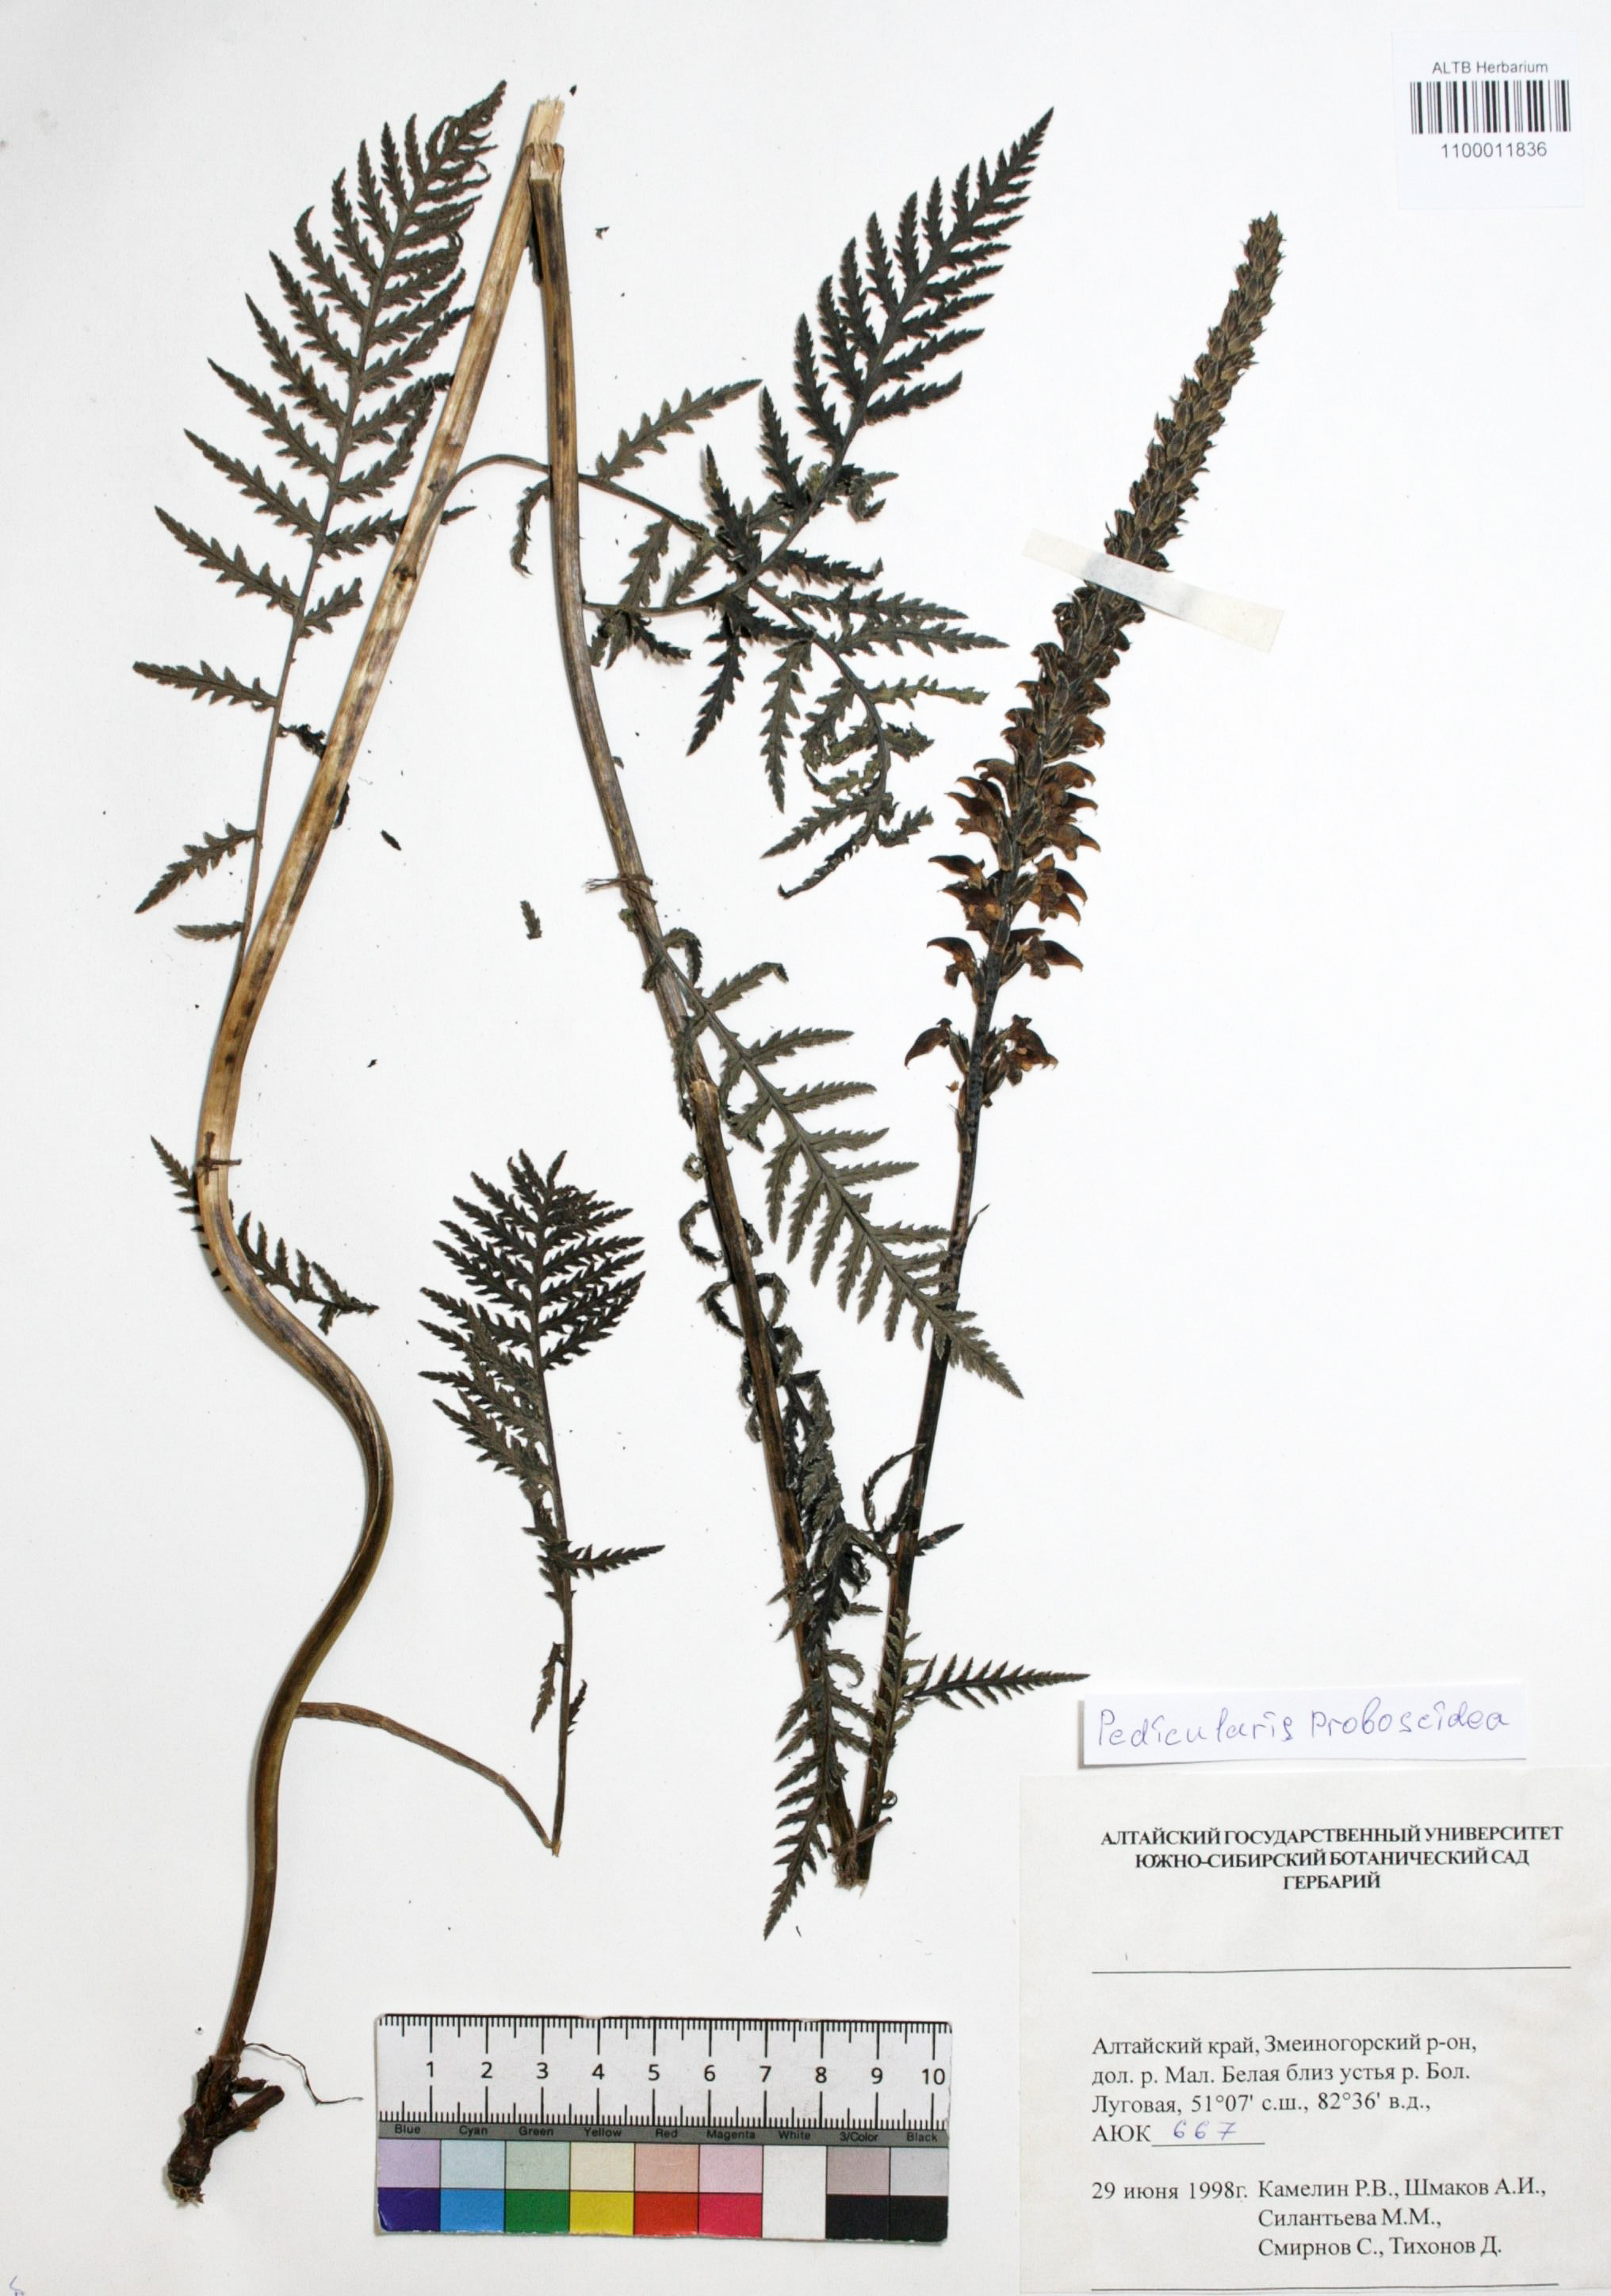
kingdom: Plantae
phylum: Tracheophyta
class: Magnoliopsida
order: Lamiales
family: Orobanchaceae
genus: Pedicularis
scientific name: Pedicularis proboscidea
